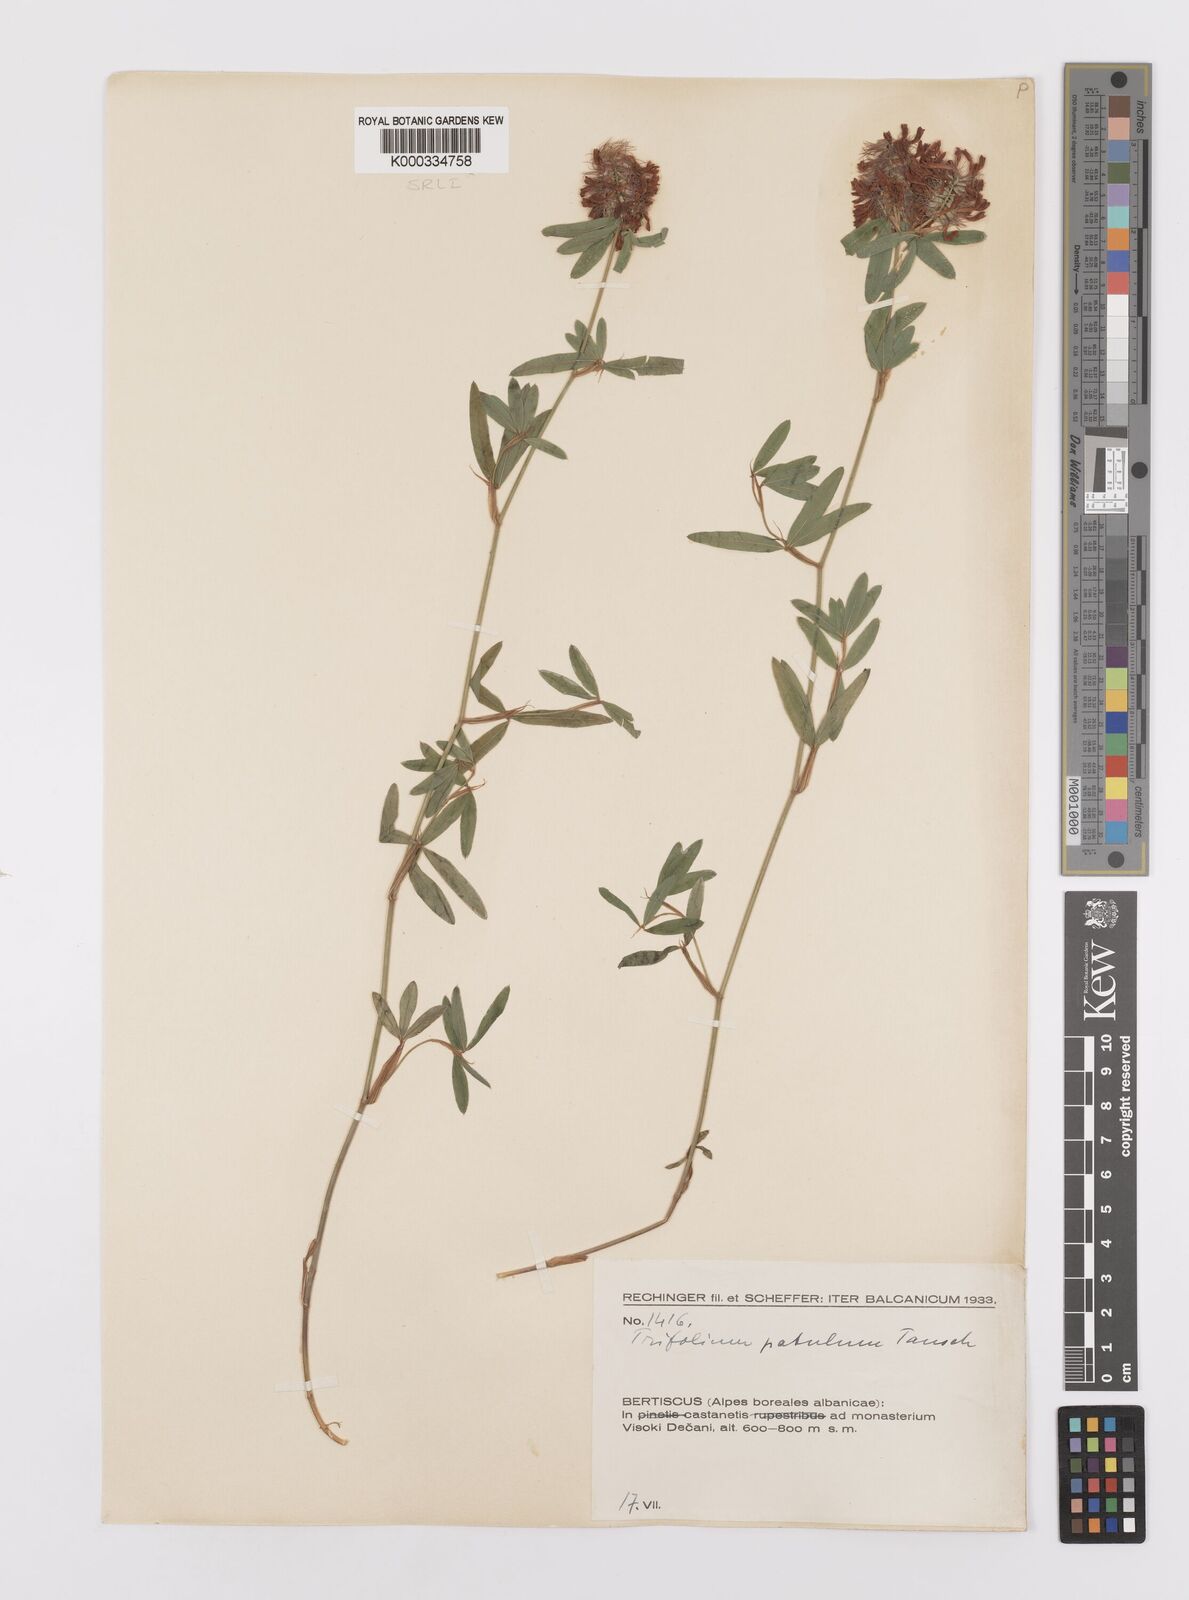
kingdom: Plantae
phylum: Tracheophyta
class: Magnoliopsida
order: Fabales
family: Fabaceae
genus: Trifolium
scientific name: Trifolium patulum
